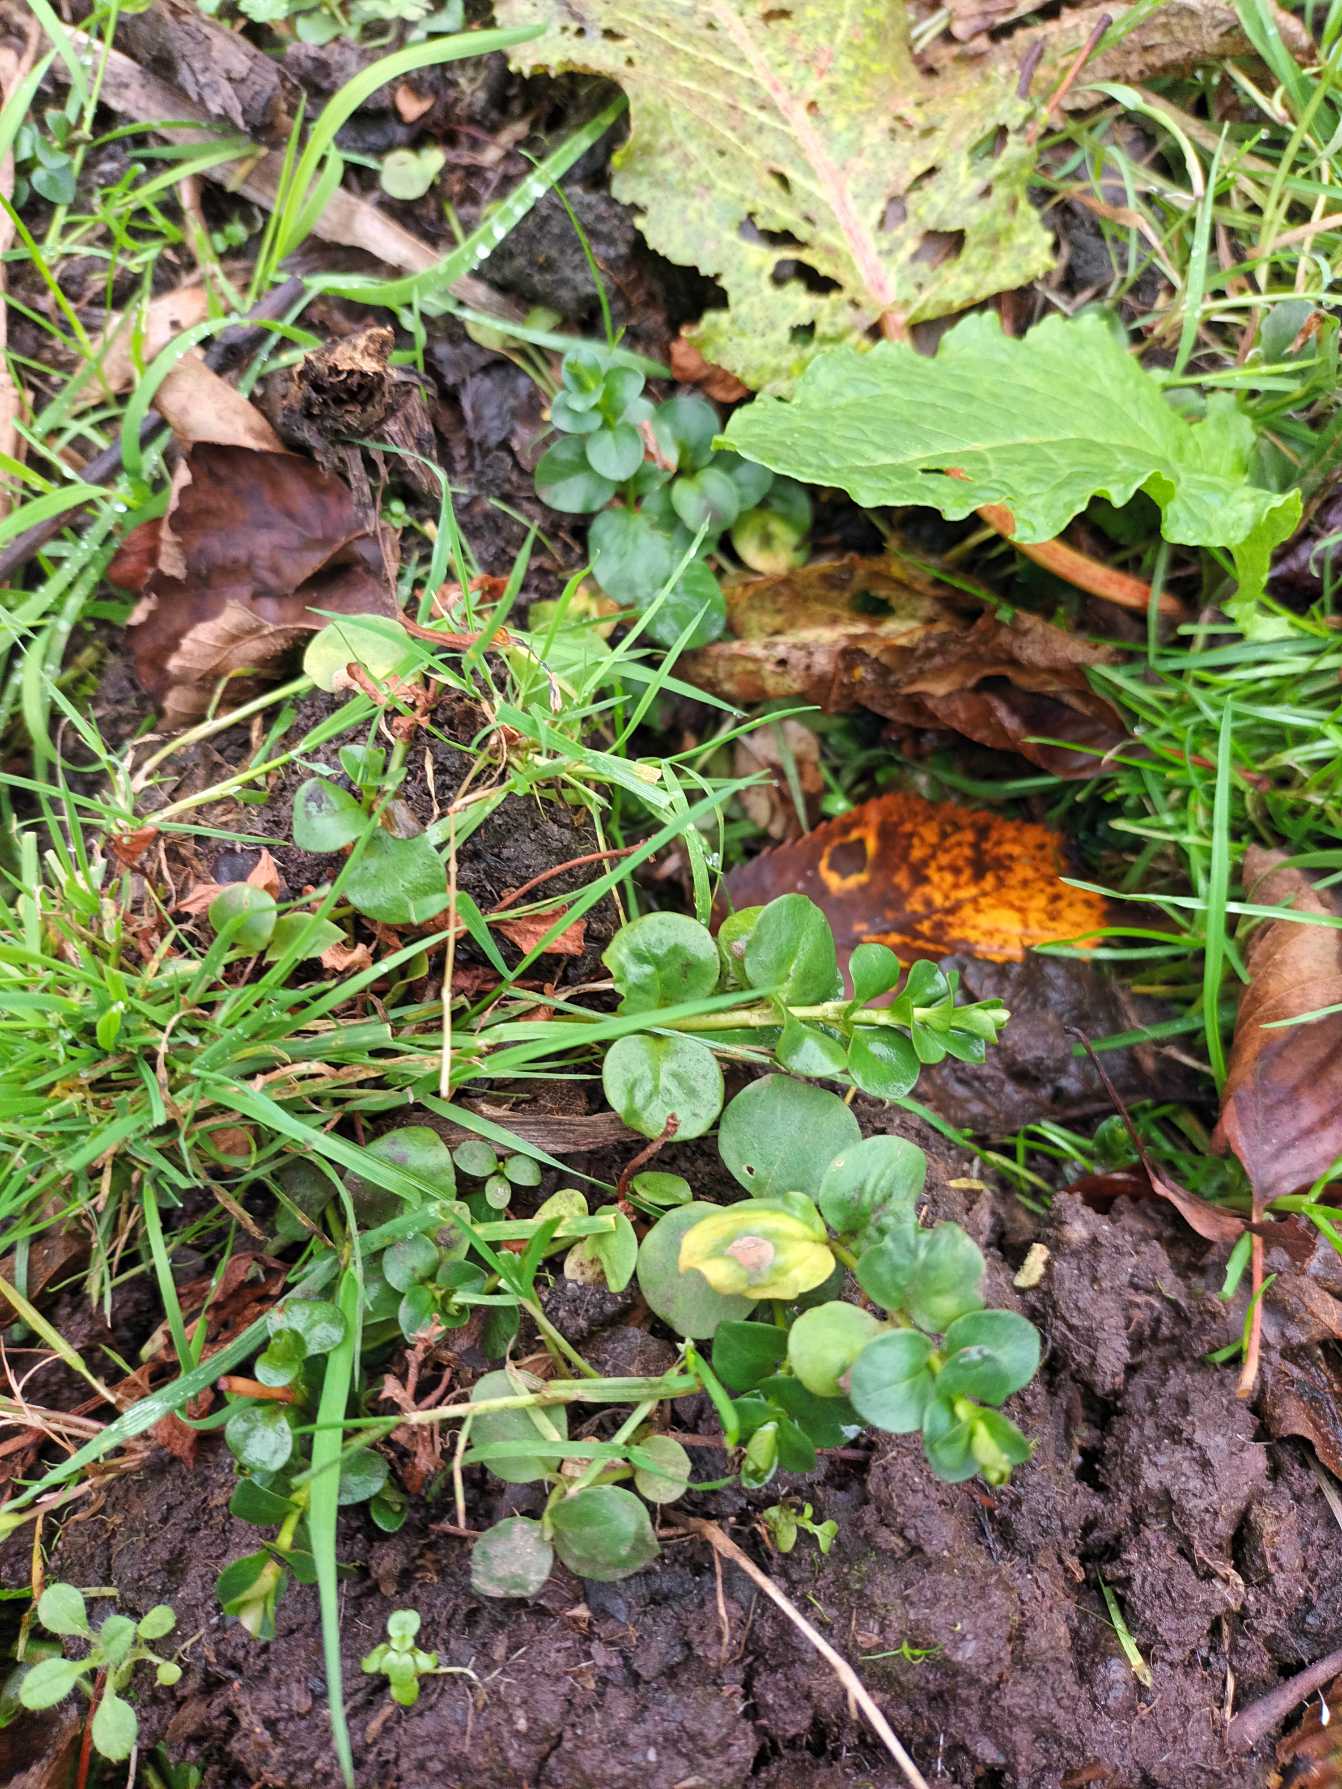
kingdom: Plantae
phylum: Tracheophyta
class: Magnoliopsida
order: Ericales
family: Primulaceae
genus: Lysimachia
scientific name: Lysimachia nummularia
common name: Pengebladet fredløs
